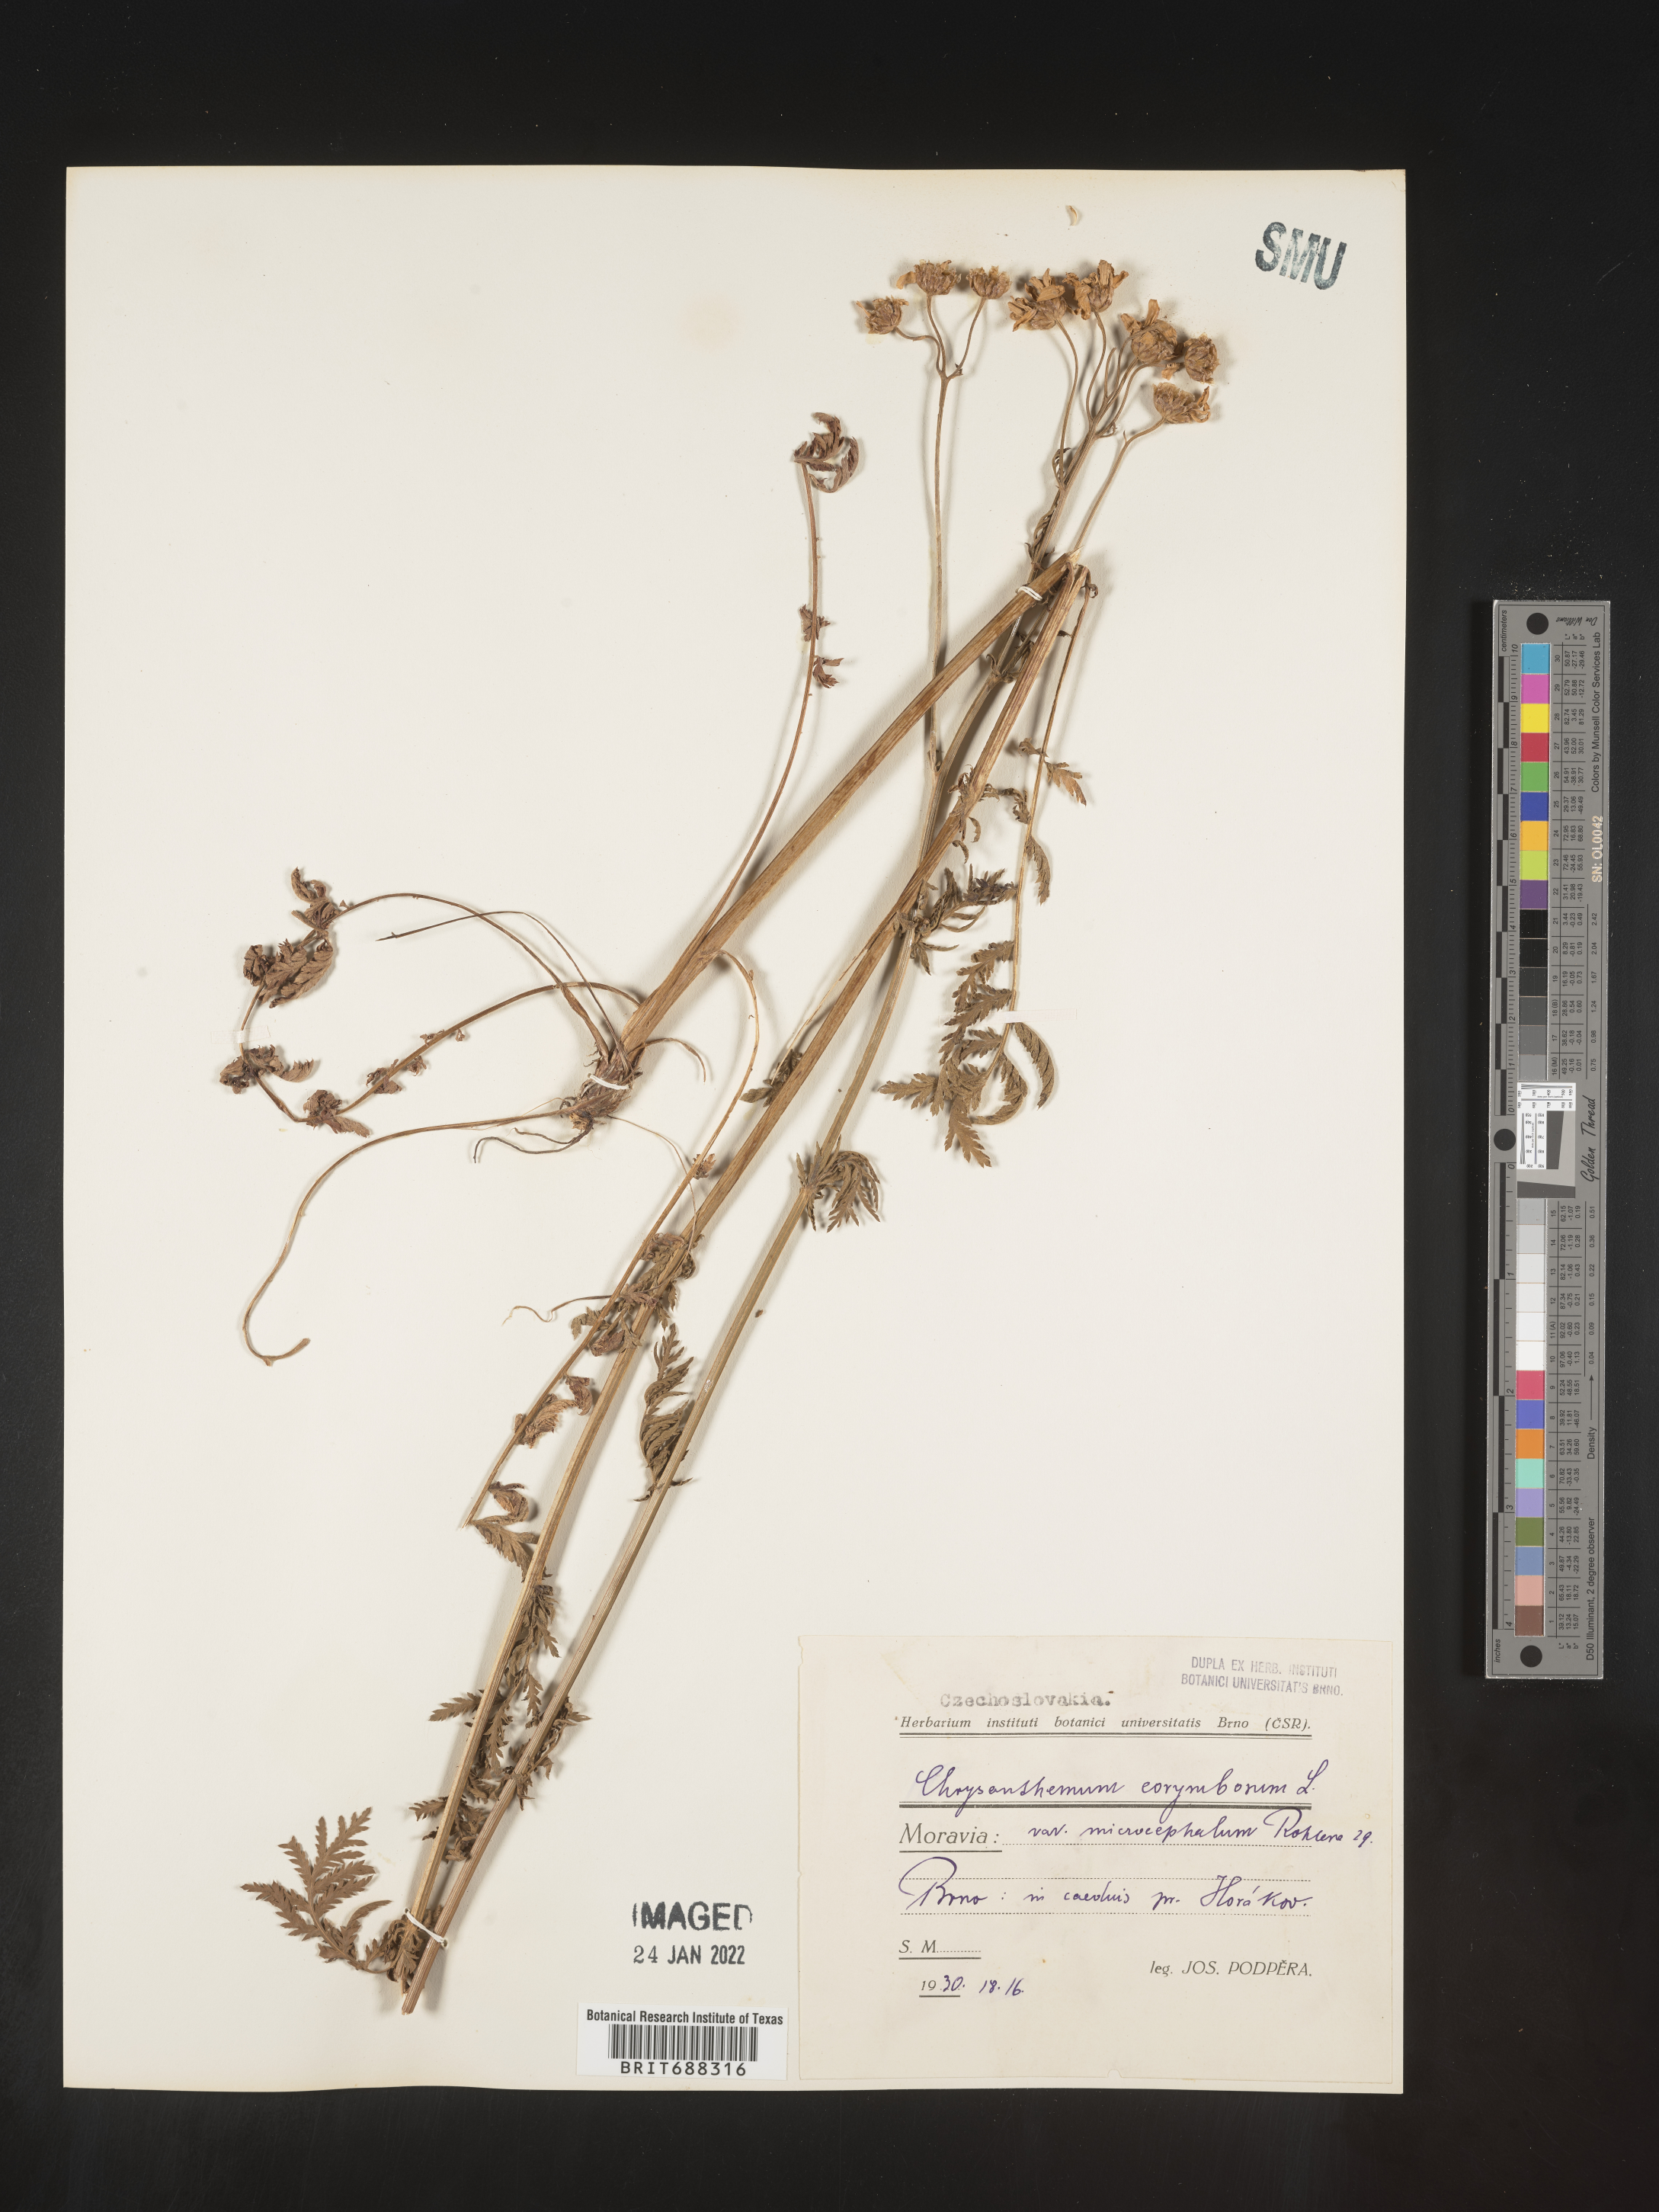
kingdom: Plantae
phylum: Tracheophyta
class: Magnoliopsida
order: Asterales
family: Asteraceae
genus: Chrysanthemum
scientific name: Chrysanthemum
